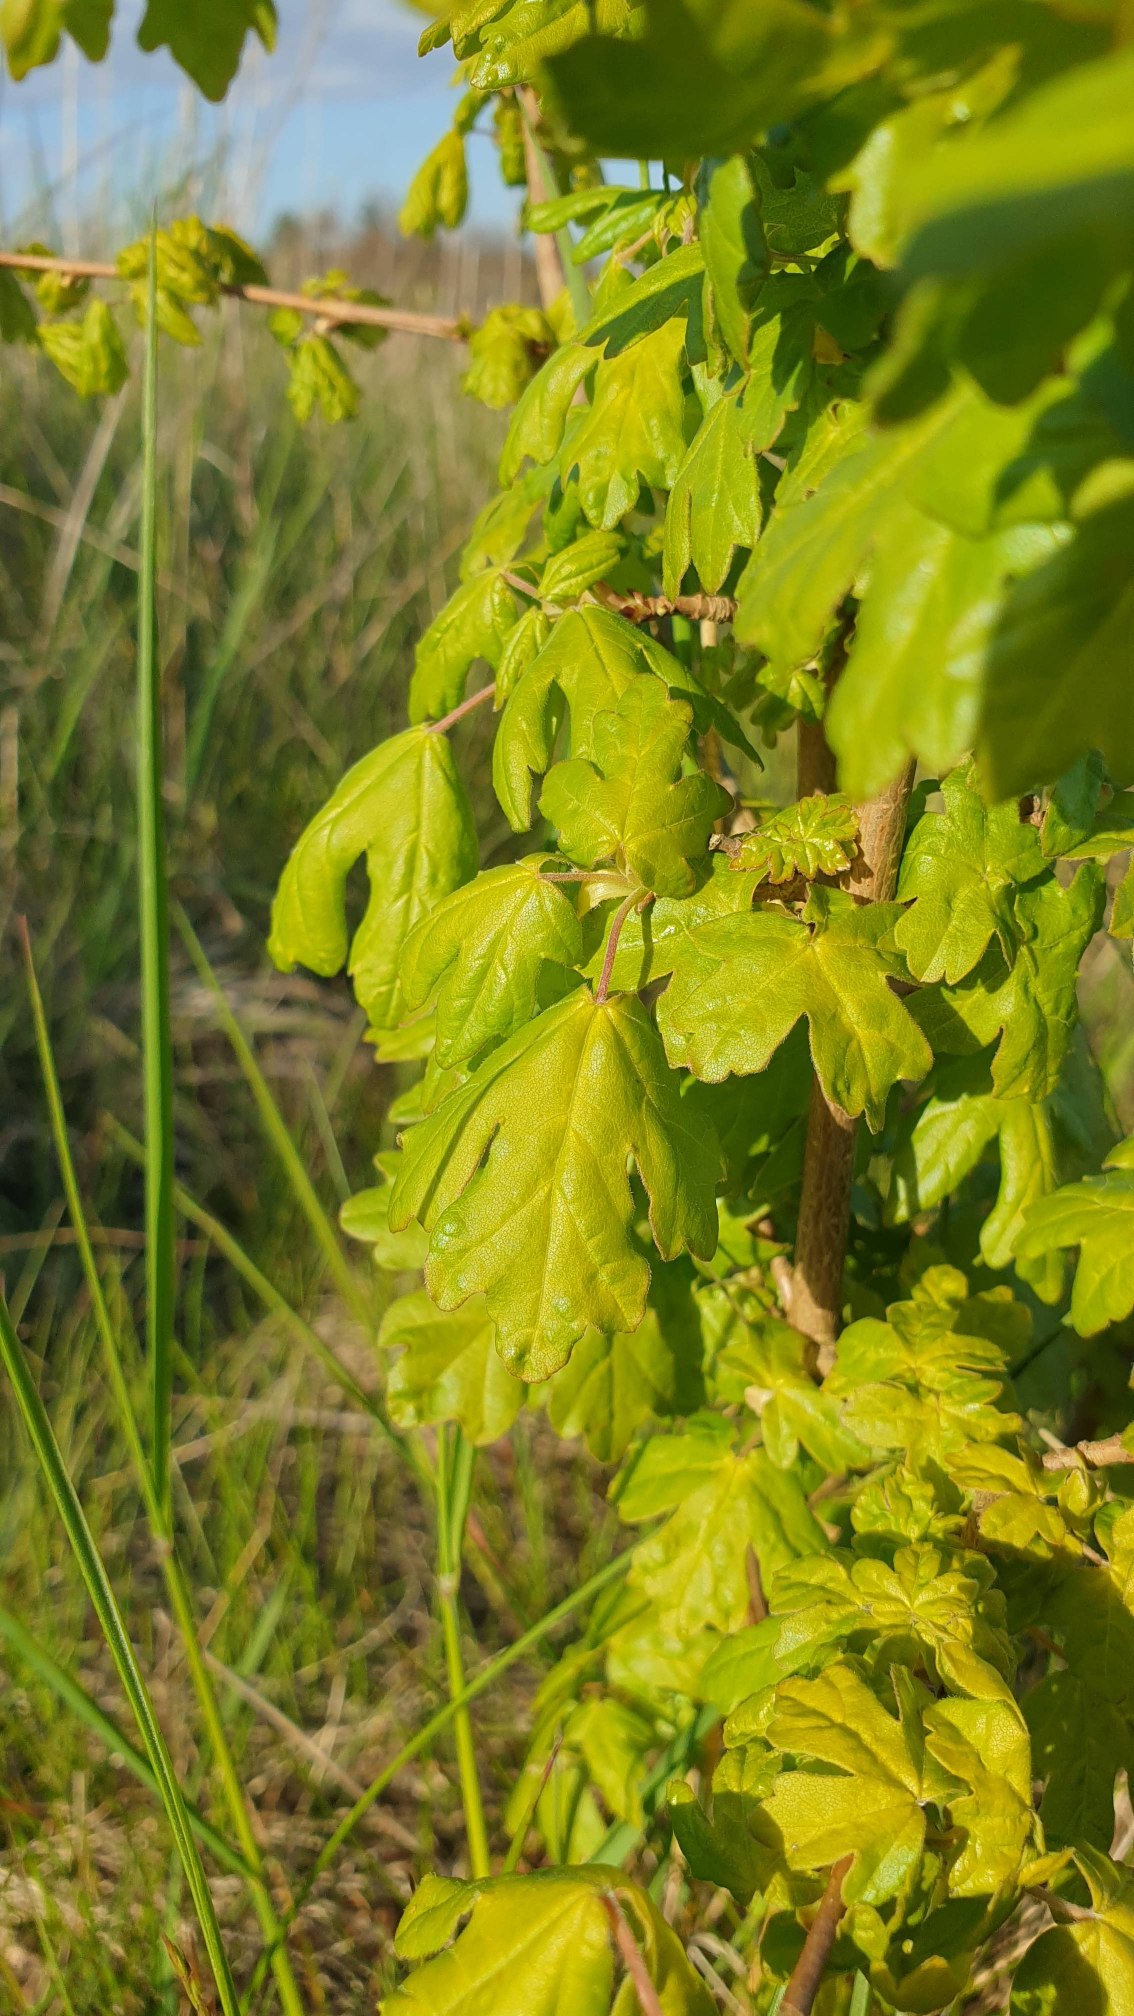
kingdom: Plantae
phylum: Tracheophyta
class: Magnoliopsida
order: Sapindales
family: Sapindaceae
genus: Acer
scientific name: Acer campestre
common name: Navr
